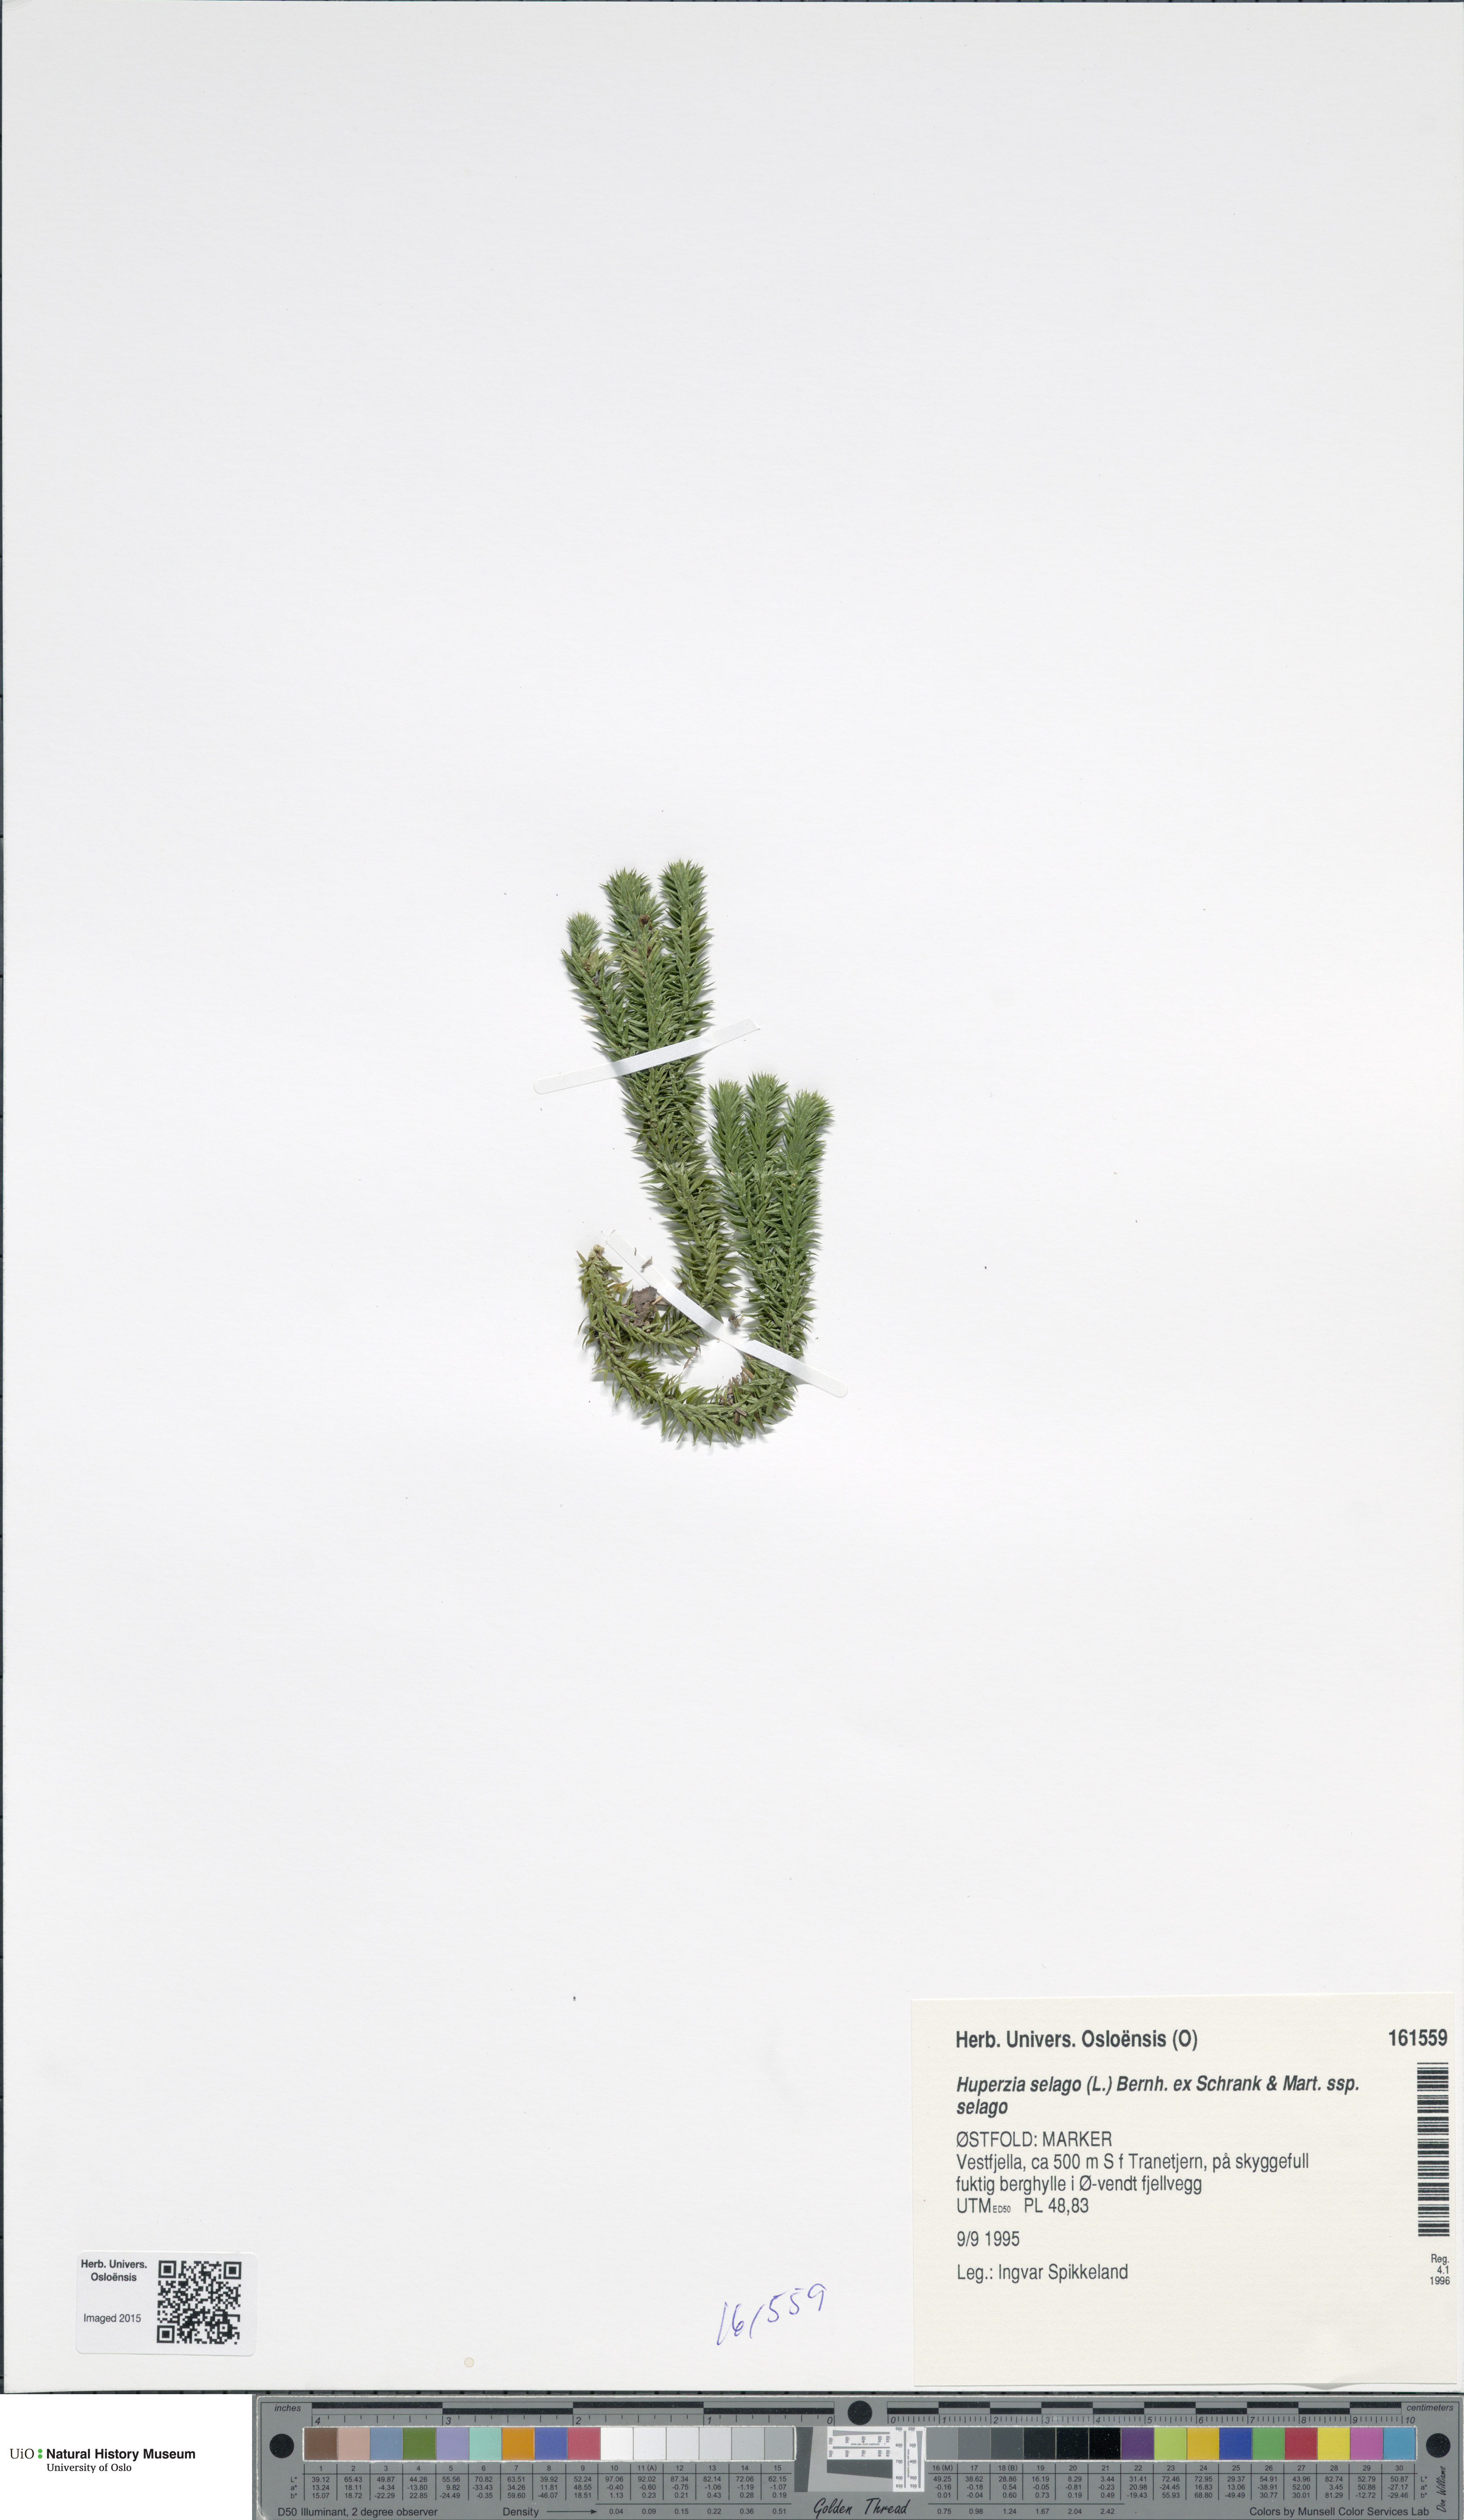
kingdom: Plantae
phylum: Tracheophyta
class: Lycopodiopsida
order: Lycopodiales
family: Lycopodiaceae
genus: Huperzia
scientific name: Huperzia selago
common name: Northern firmoss
